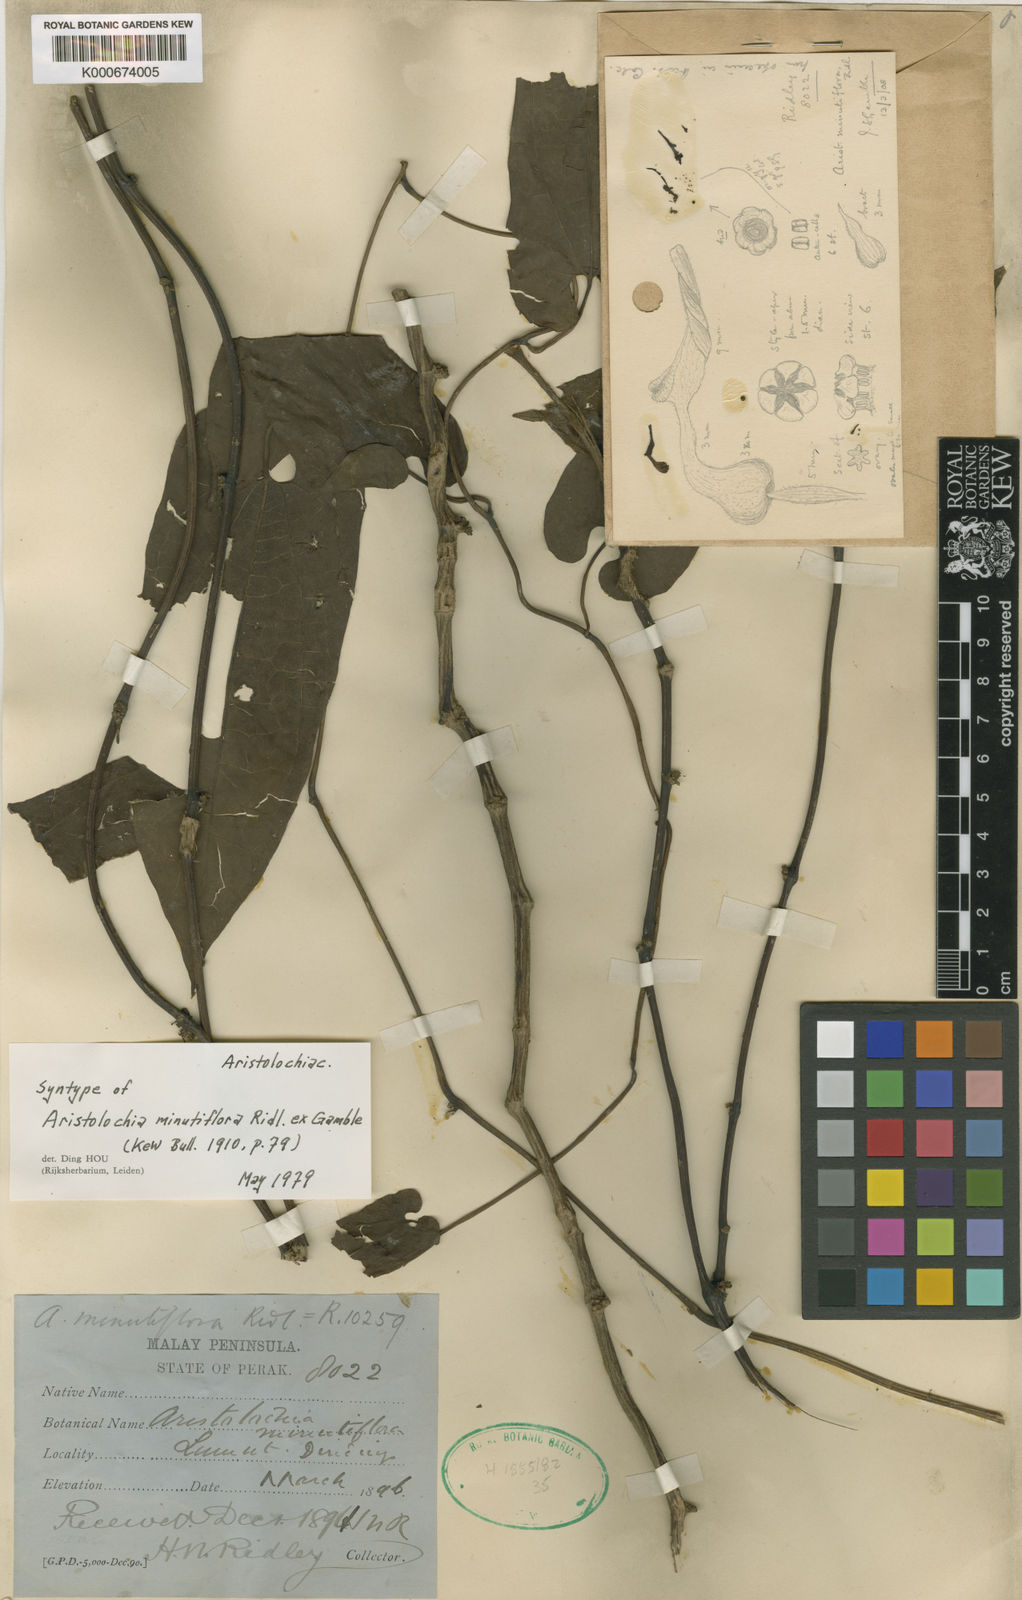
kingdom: Plantae
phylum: Tracheophyta
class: Magnoliopsida
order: Piperales
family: Aristolochiaceae
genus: Aristolochia
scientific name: Aristolochia minutiflora
